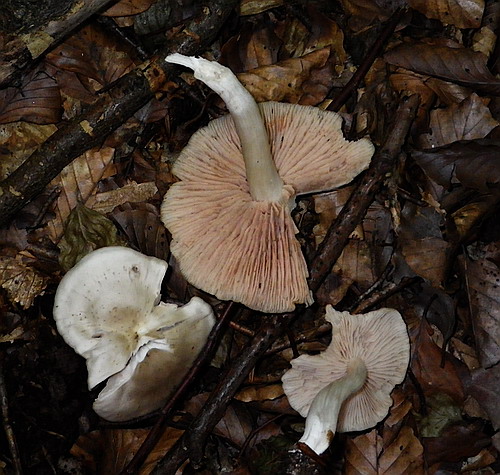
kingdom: Fungi
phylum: Basidiomycota
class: Agaricomycetes
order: Agaricales
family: Entolomataceae
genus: Entoloma
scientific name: Entoloma rhodopolium
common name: skov-rødblad
